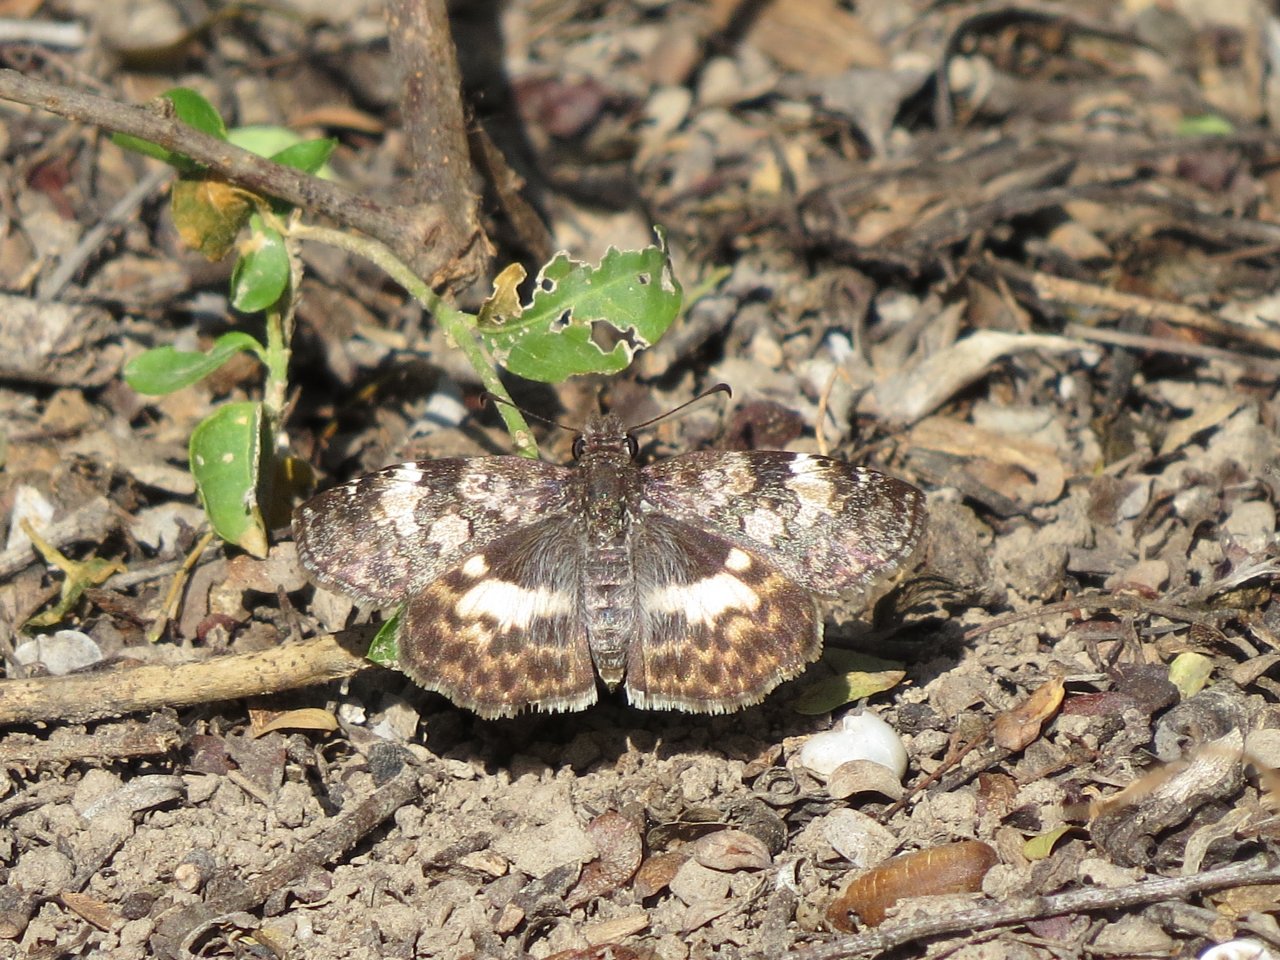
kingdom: Animalia
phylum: Arthropoda
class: Insecta
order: Lepidoptera
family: Hesperiidae
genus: Chiomara
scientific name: Chiomara asychis
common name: White-patched Skipper
